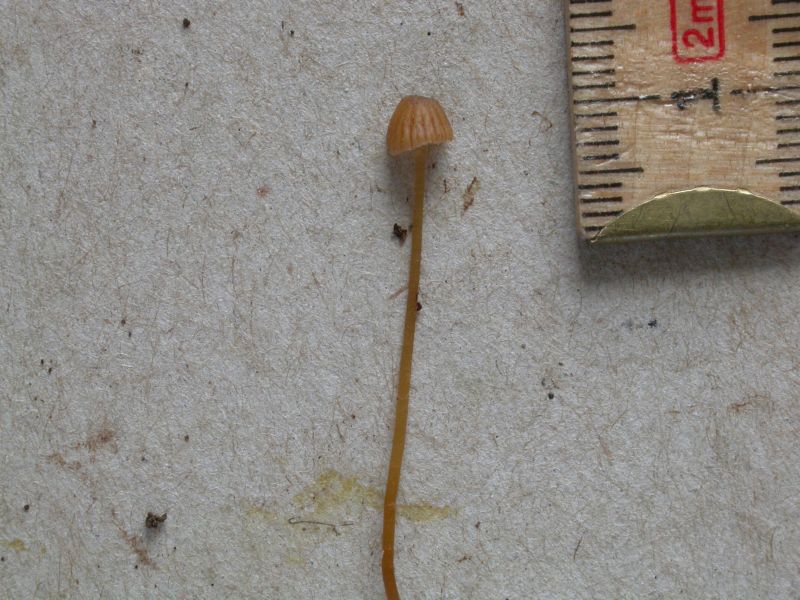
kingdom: Fungi
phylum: Basidiomycota
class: Agaricomycetes
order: Agaricales
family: Hymenogastraceae
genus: Galerina
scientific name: Galerina atkinsoniana
